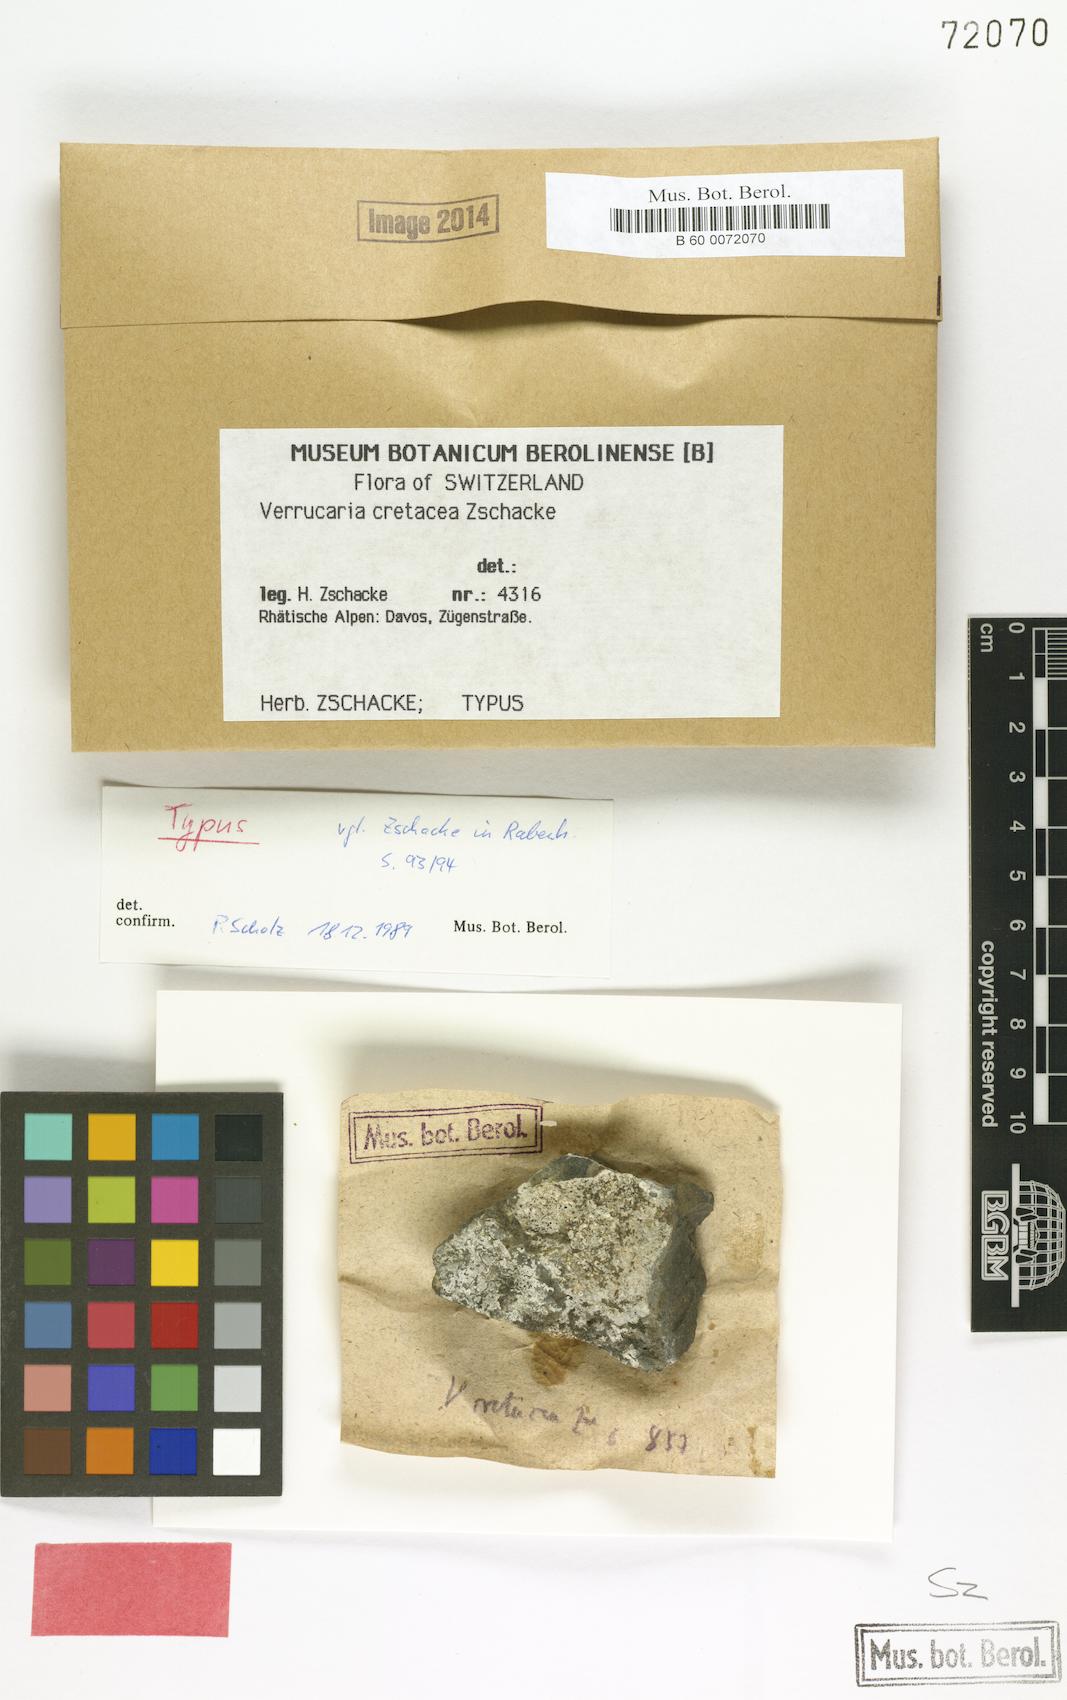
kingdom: Fungi
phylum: Ascomycota
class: Eurotiomycetes
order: Verrucariales
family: Verrucariaceae
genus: Verrucaria
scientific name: Verrucaria
